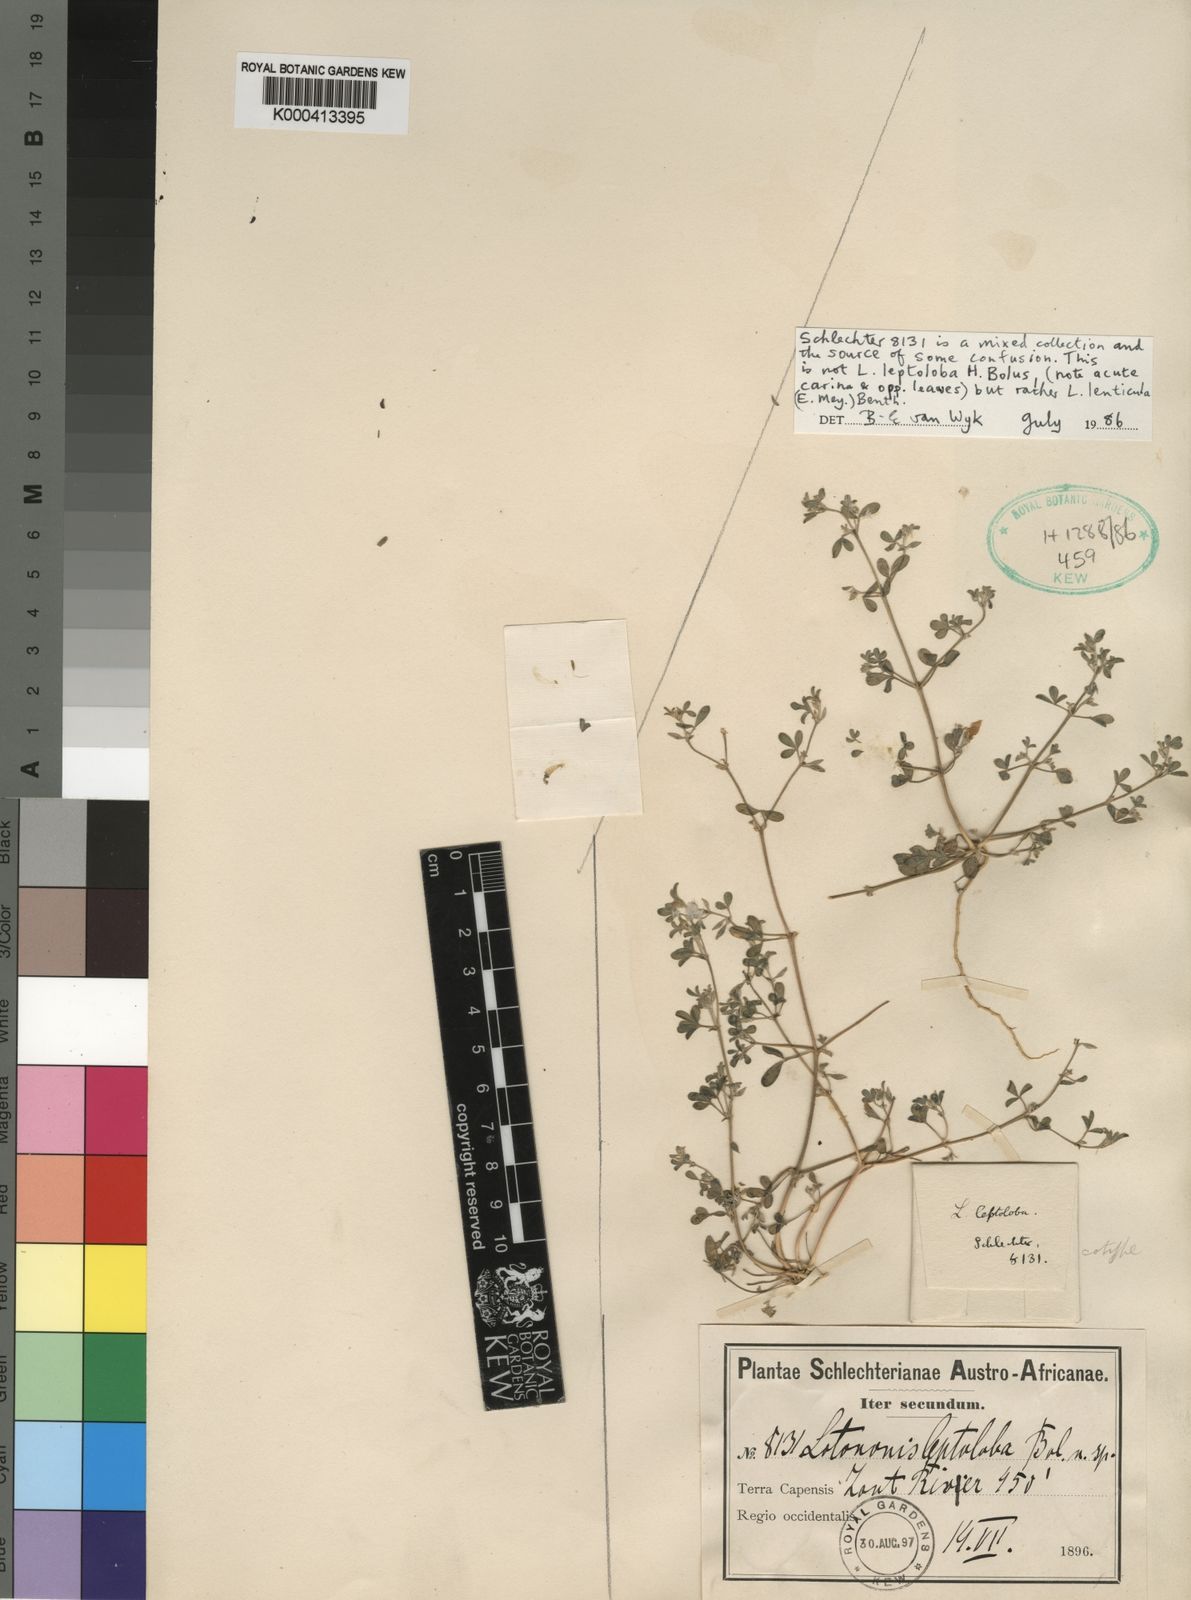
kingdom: Plantae
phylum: Tracheophyta
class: Magnoliopsida
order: Fabales
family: Fabaceae
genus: Lotononis
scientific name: Lotononis
